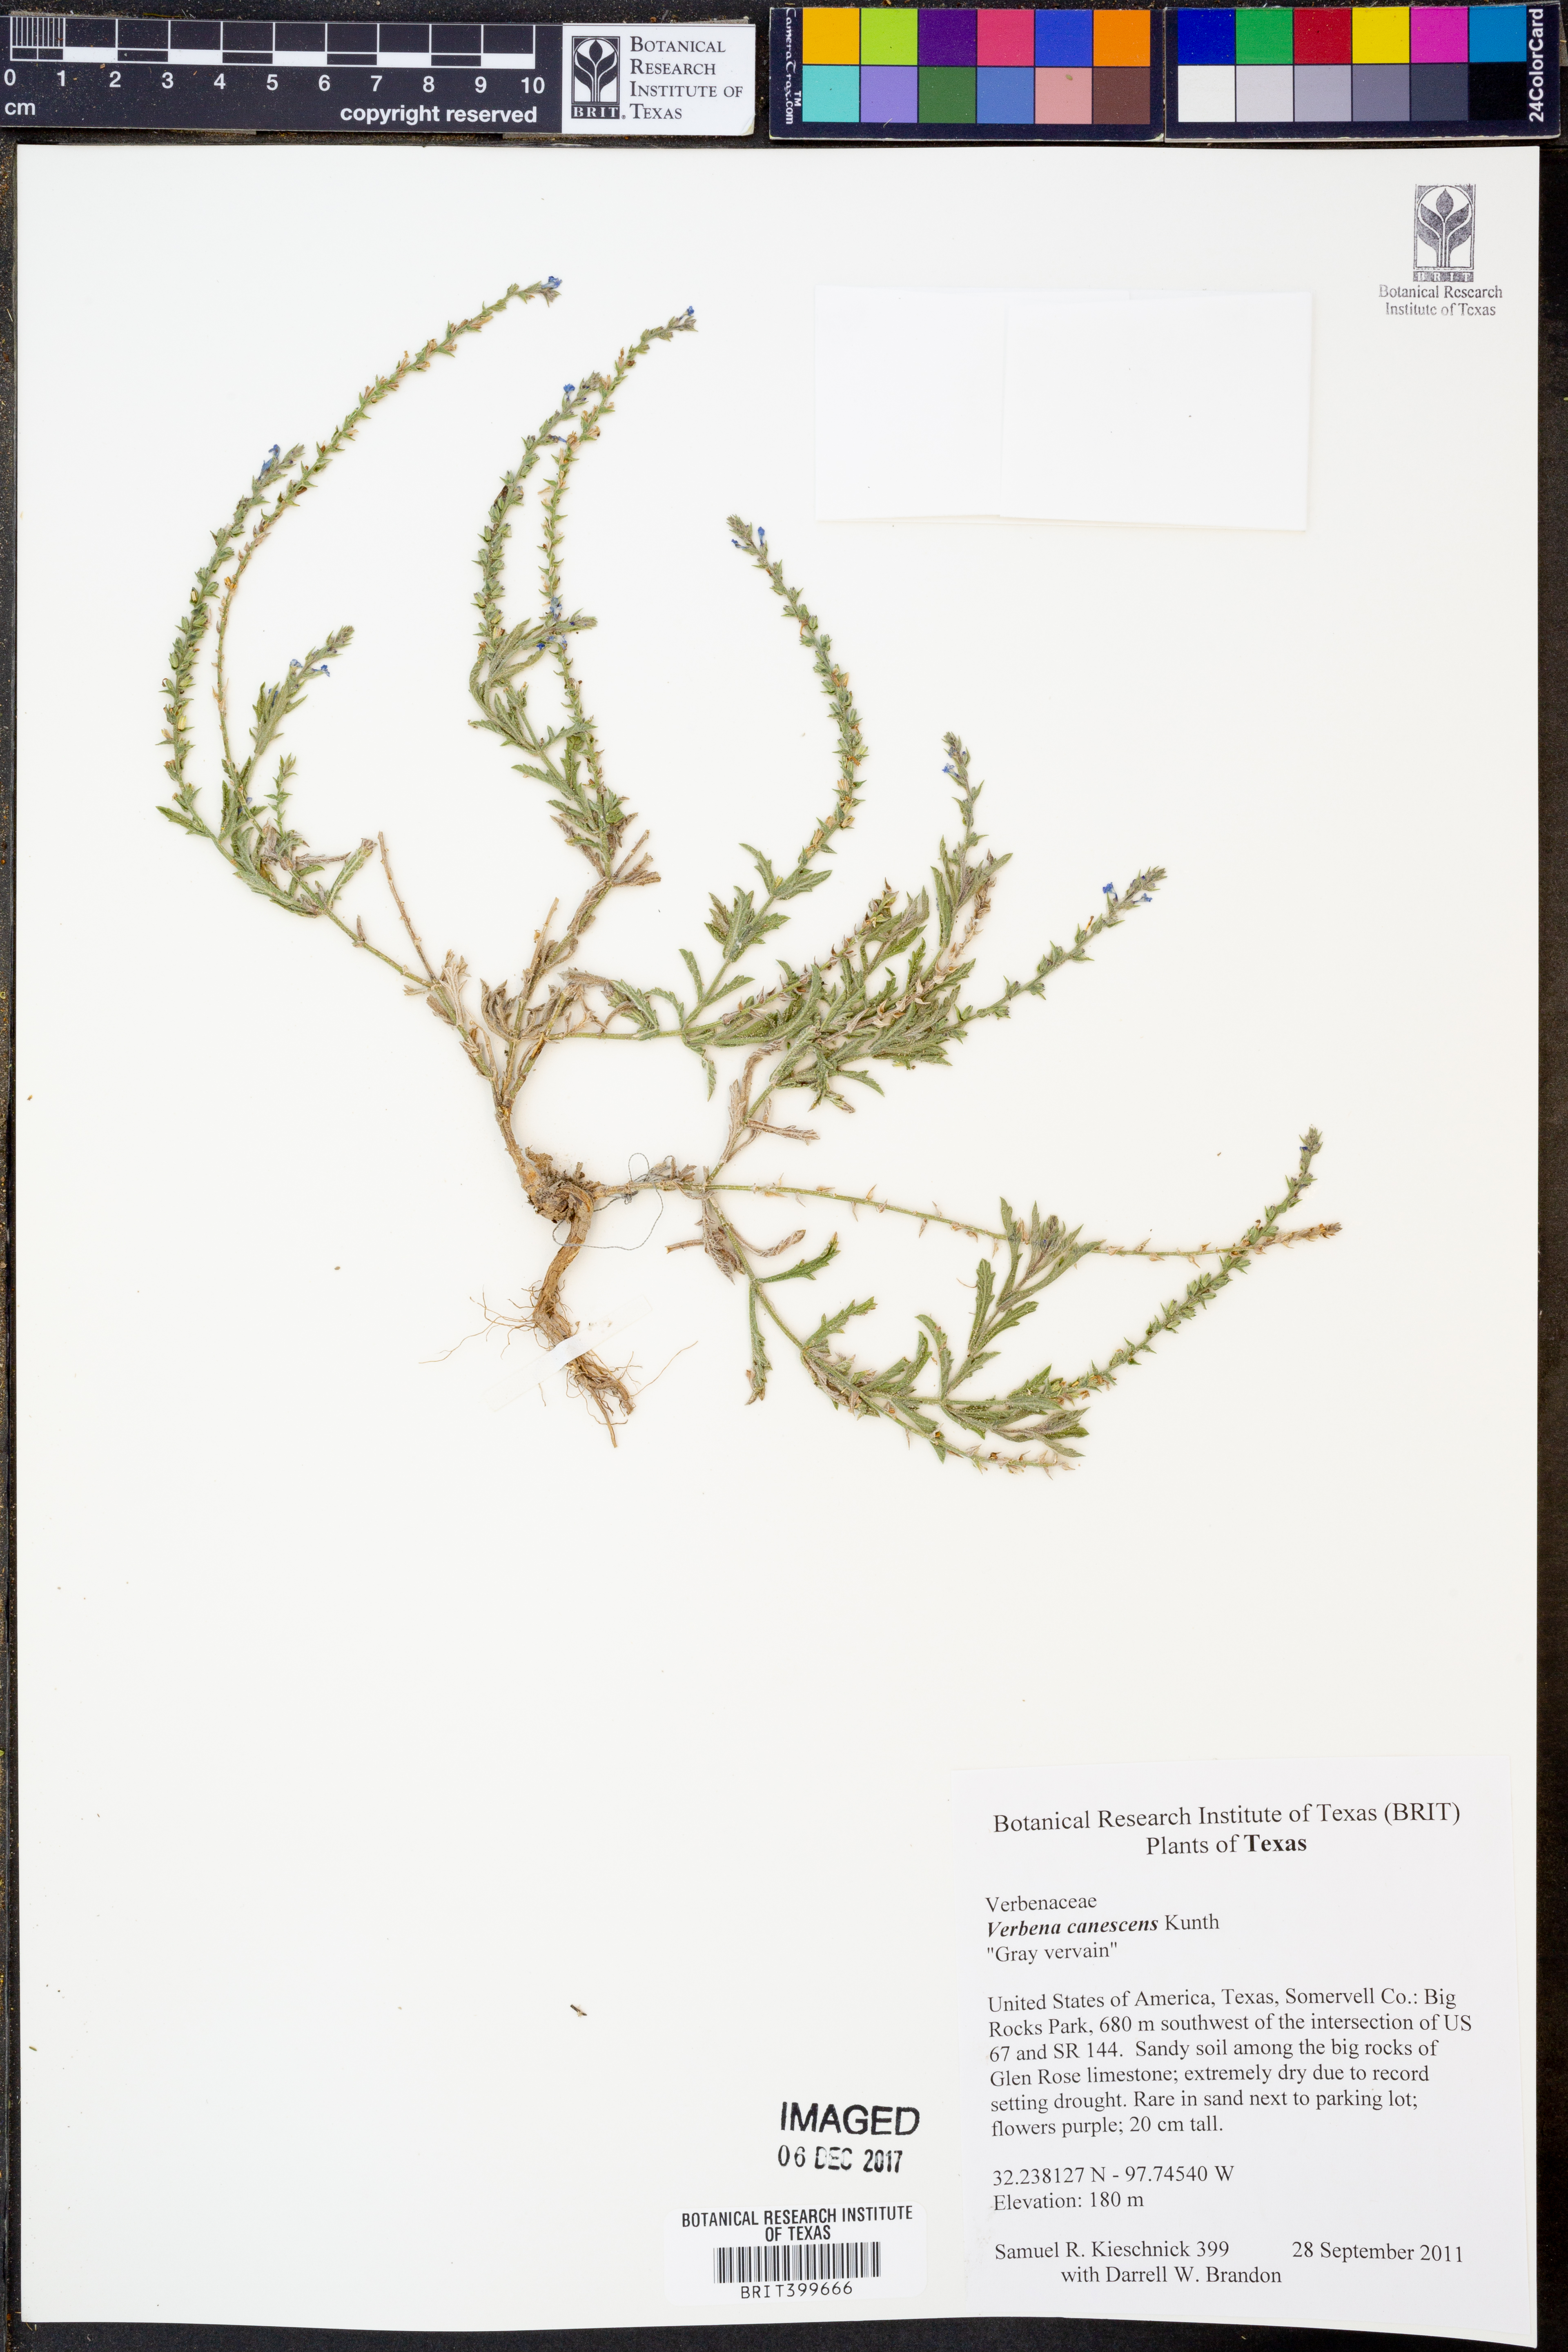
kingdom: Plantae
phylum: Tracheophyta
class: Magnoliopsida
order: Lamiales
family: Verbenaceae
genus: Verbena
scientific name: Verbena canescens
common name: Gray vervain
